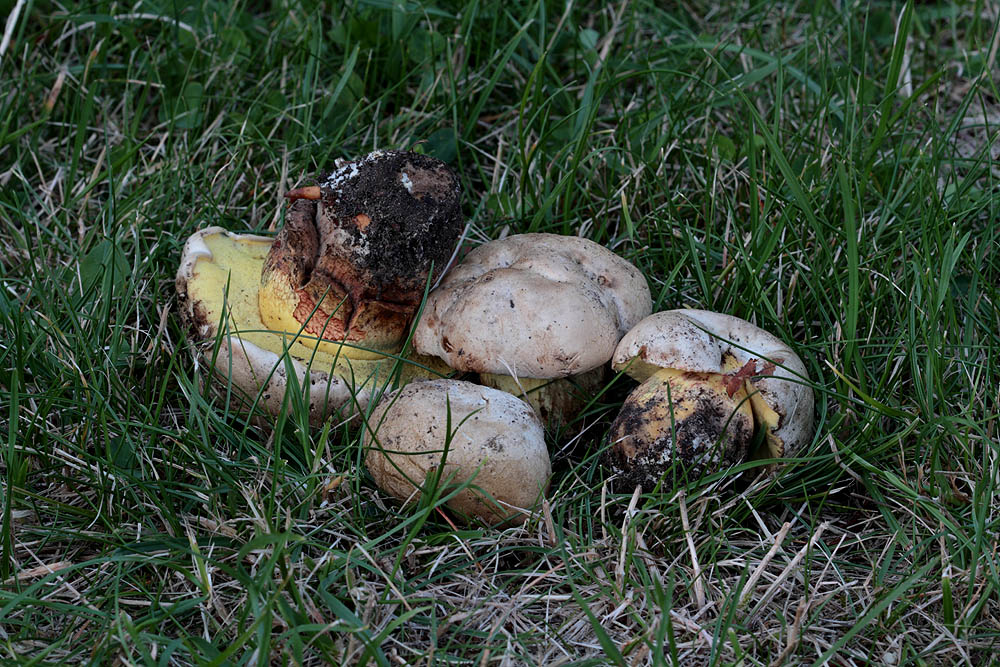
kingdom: Fungi
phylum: Basidiomycota
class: Agaricomycetes
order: Boletales
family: Boletaceae
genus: Caloboletus
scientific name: Caloboletus radicans
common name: rod-rørhat
